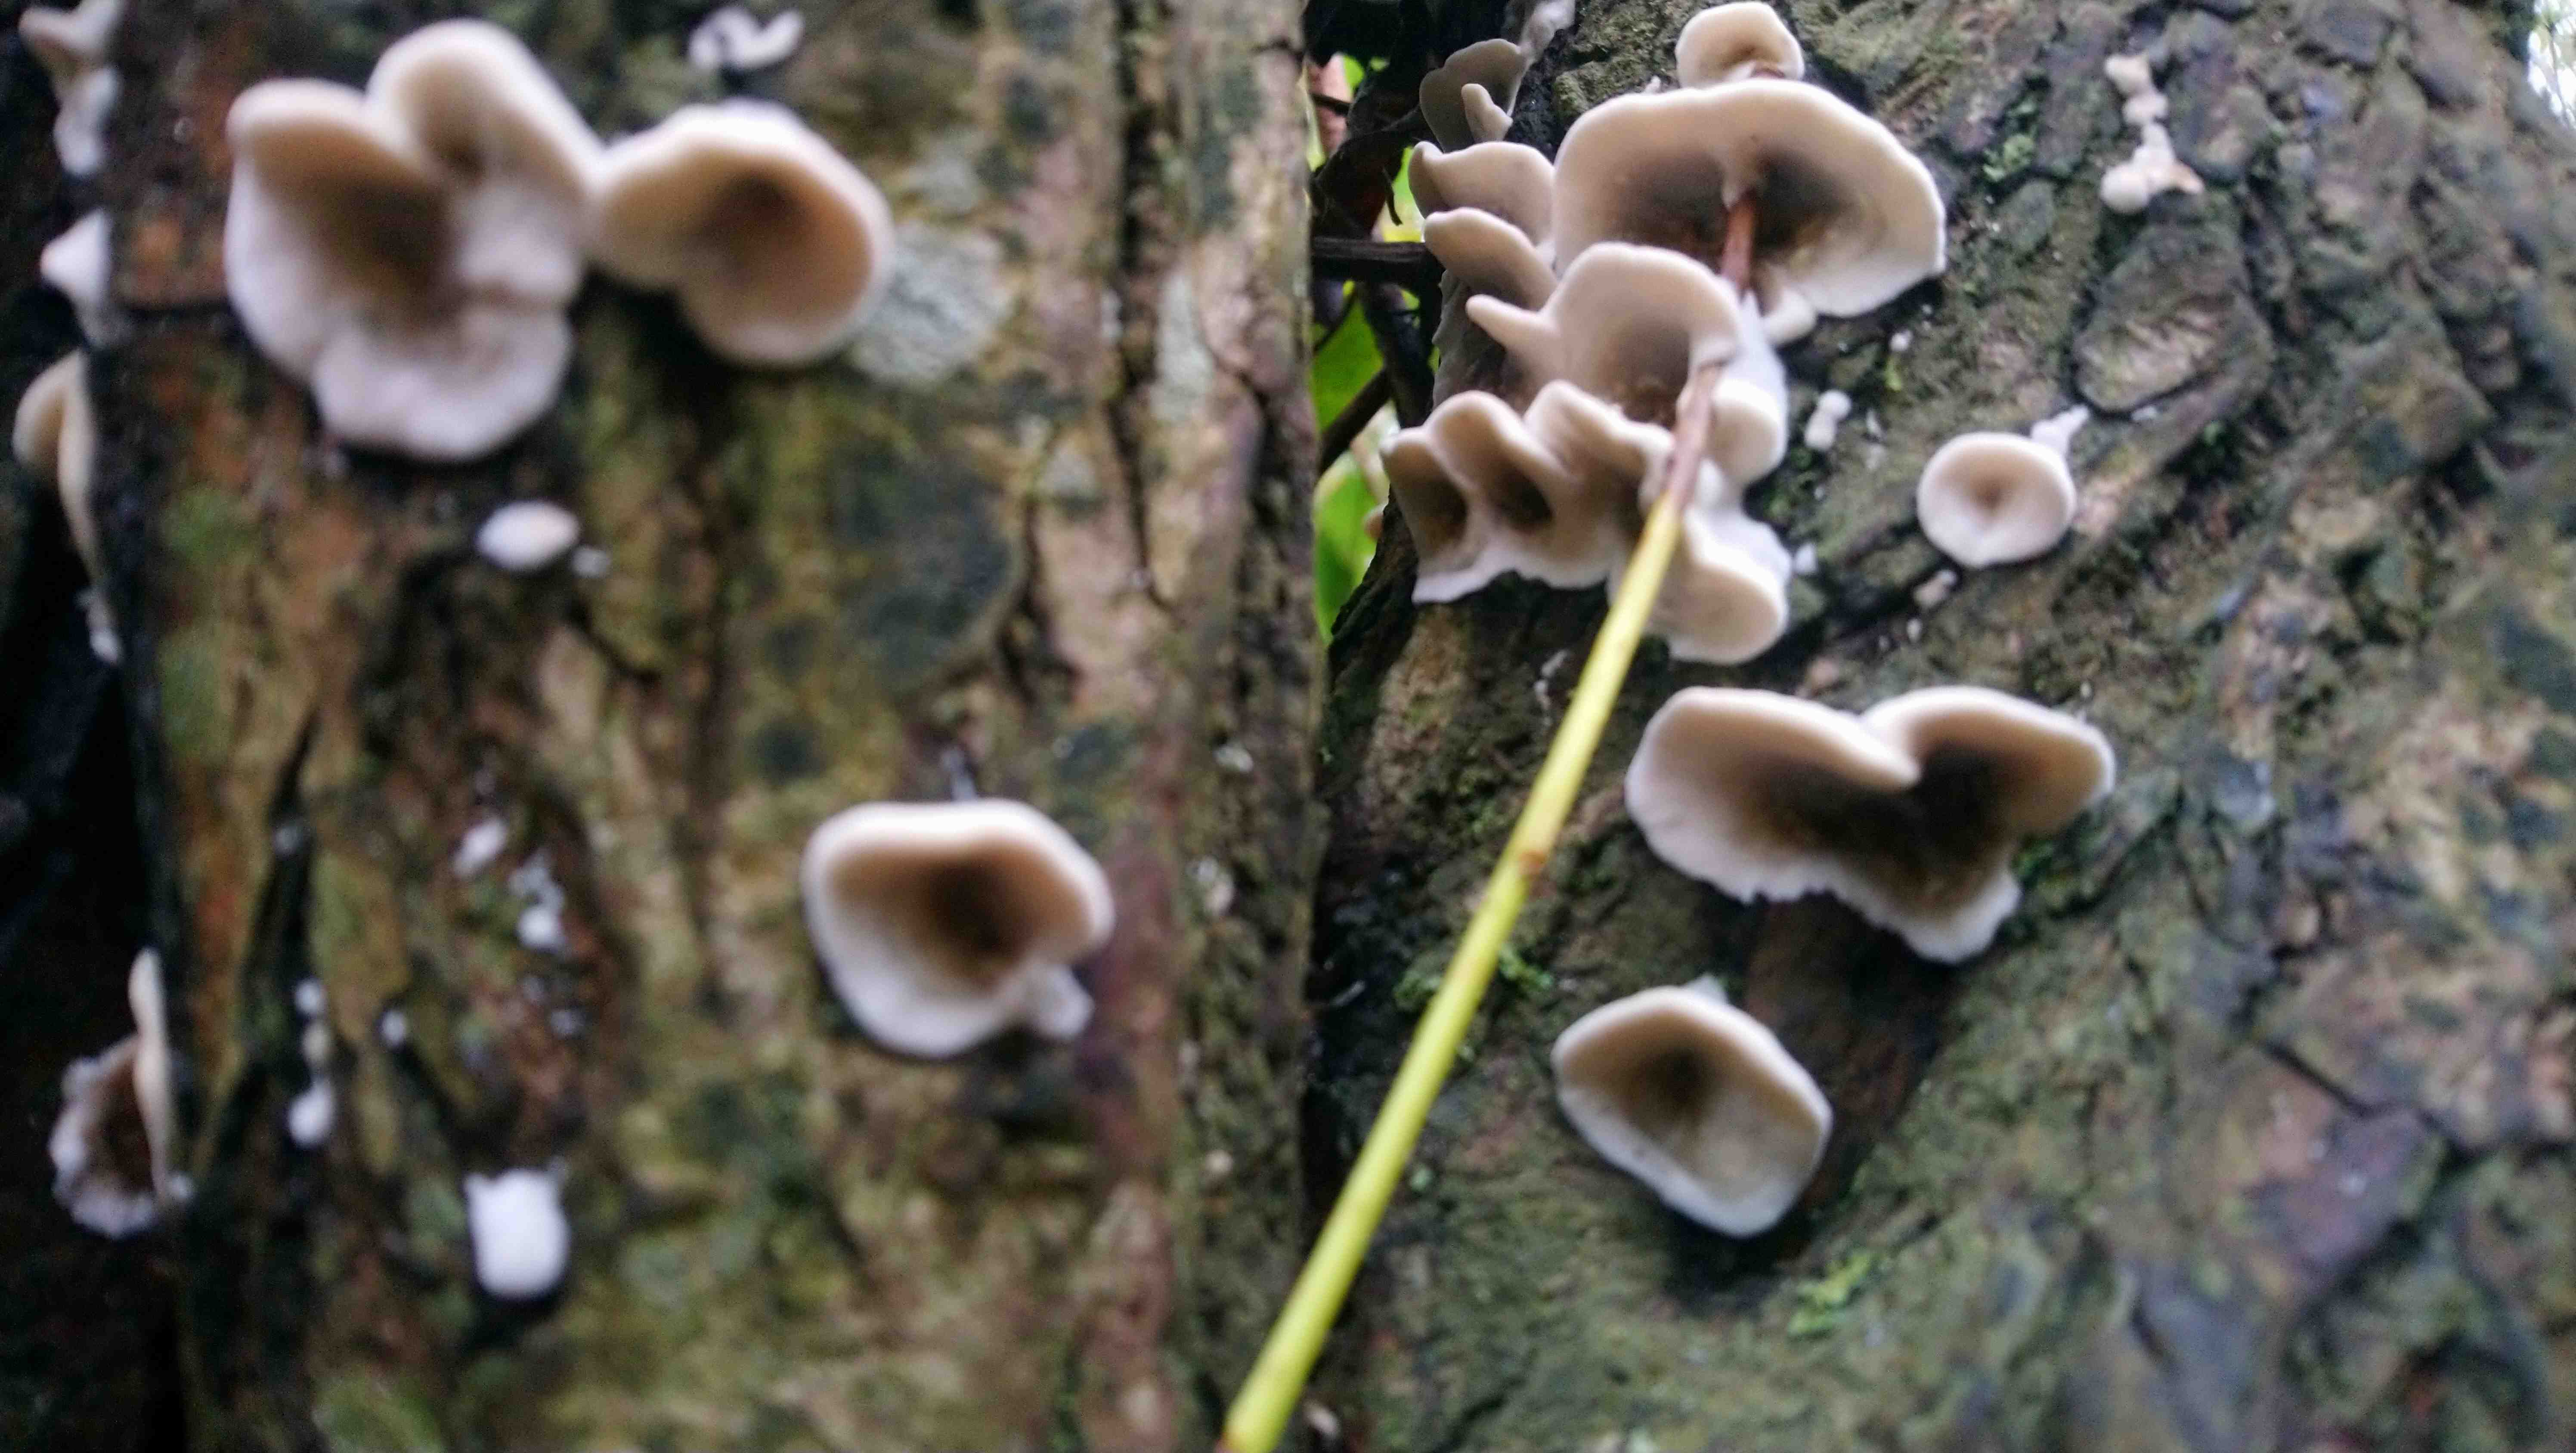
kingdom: Fungi
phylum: Basidiomycota
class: Agaricomycetes
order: Polyporales
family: Phanerochaetaceae
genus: Bjerkandera
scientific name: Bjerkandera adusta
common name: sveden sodporesvamp
